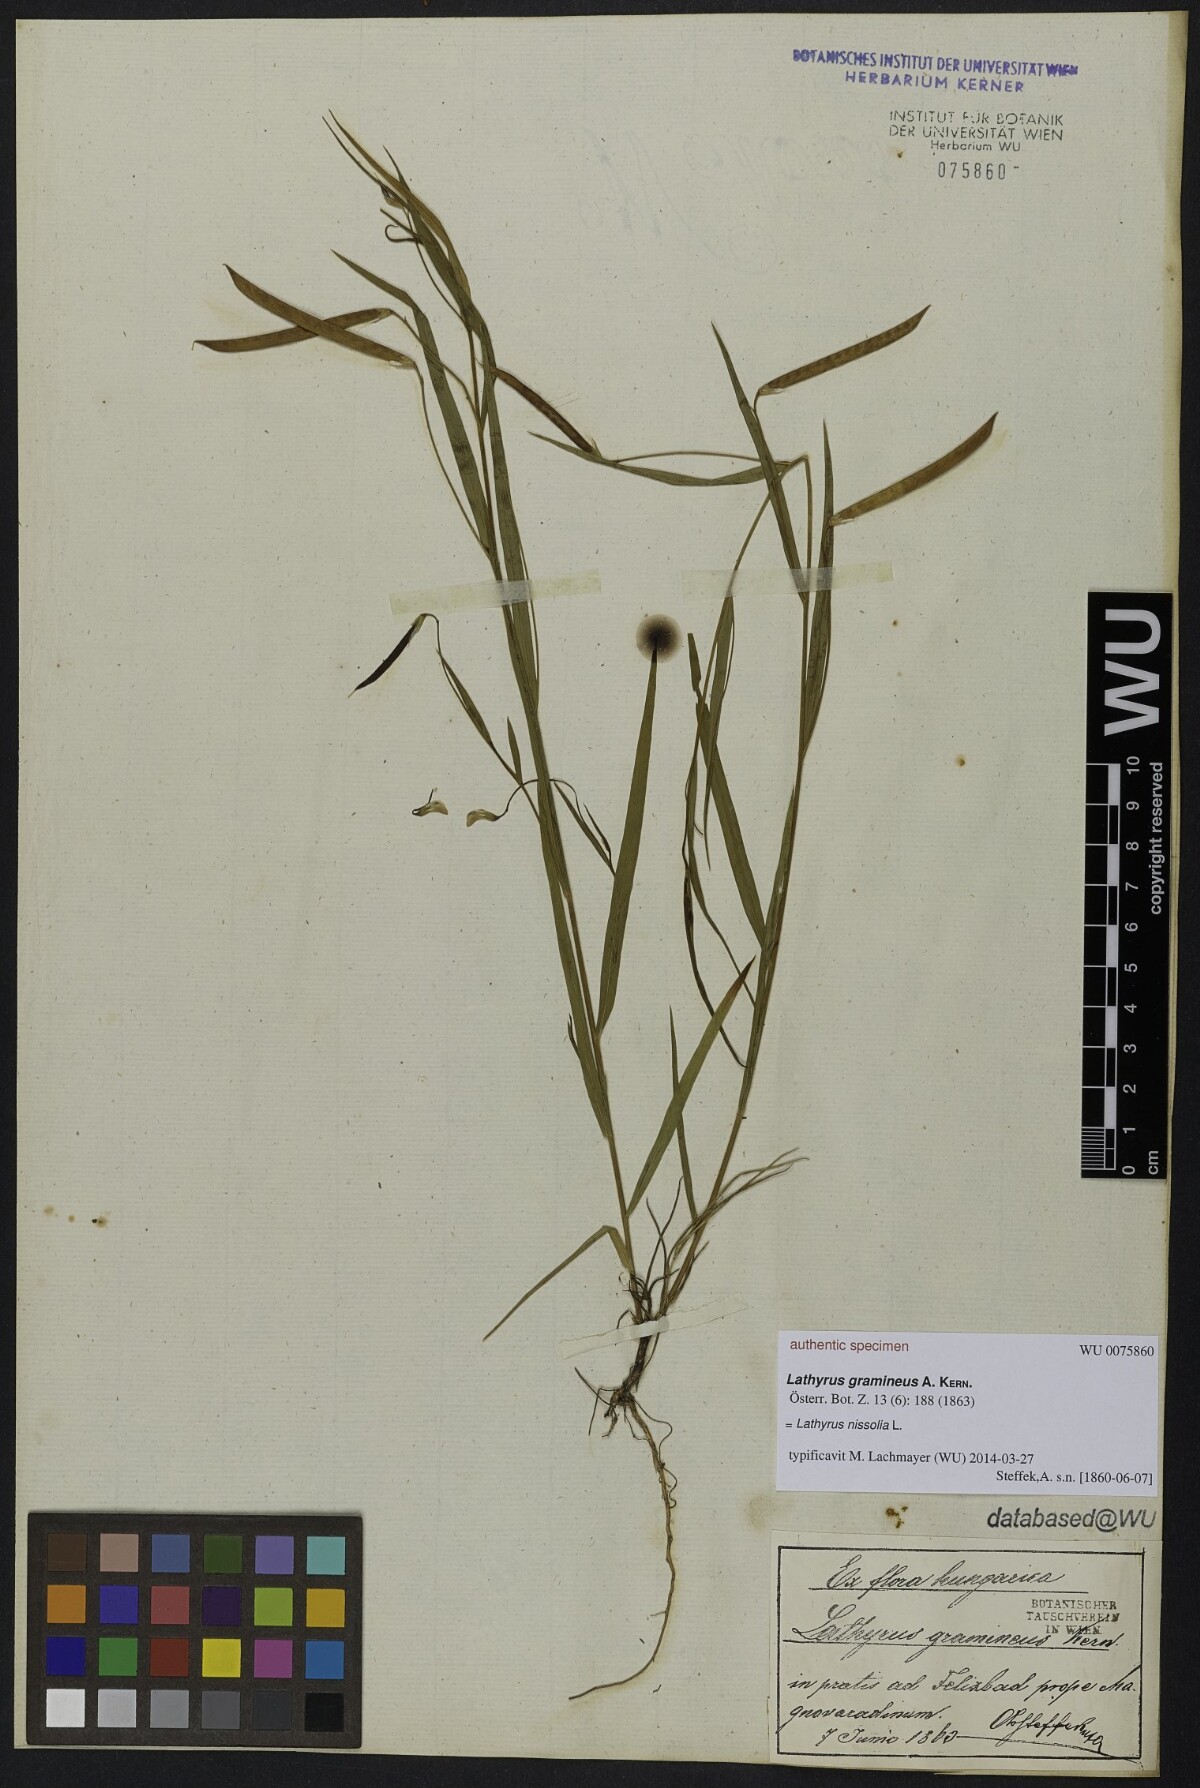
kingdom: Plantae
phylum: Tracheophyta
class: Magnoliopsida
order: Fabales
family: Fabaceae
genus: Lathyrus
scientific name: Lathyrus nissolia
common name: Grass vetchling
